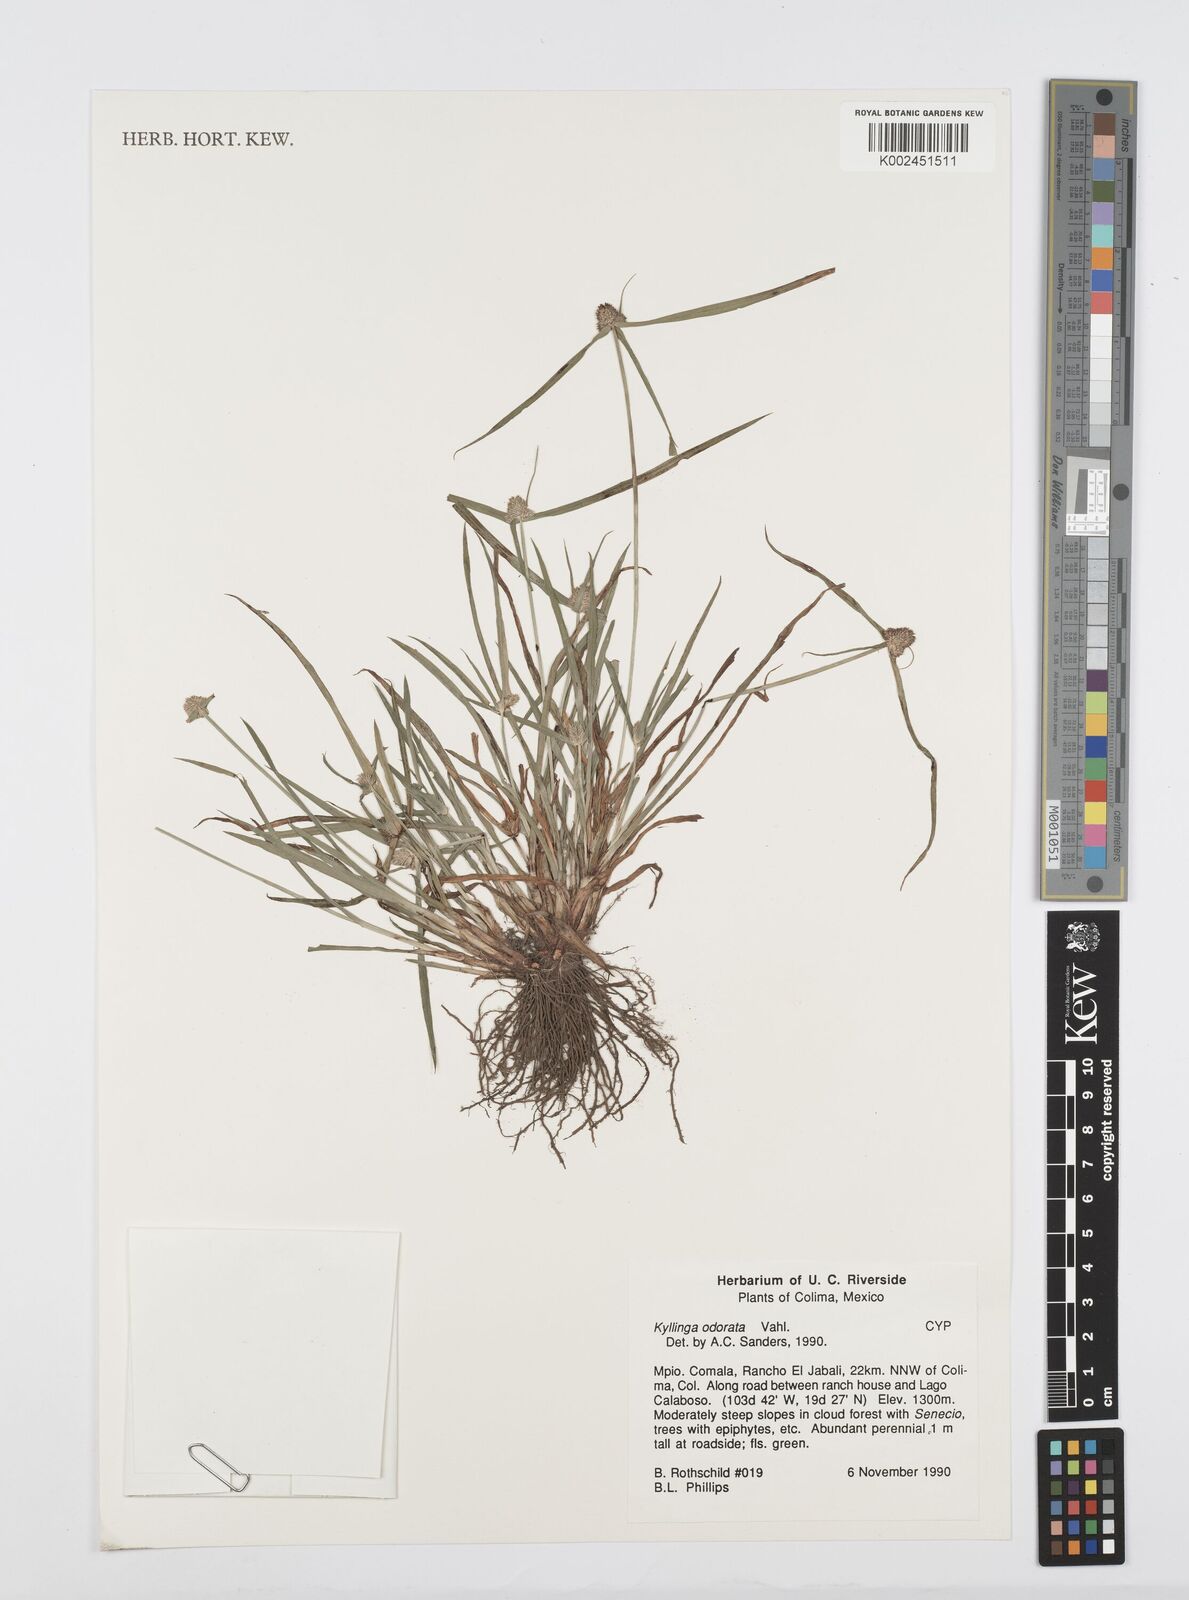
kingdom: Plantae
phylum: Tracheophyta
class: Liliopsida
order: Poales
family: Cyperaceae
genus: Cyperus
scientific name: Cyperus
